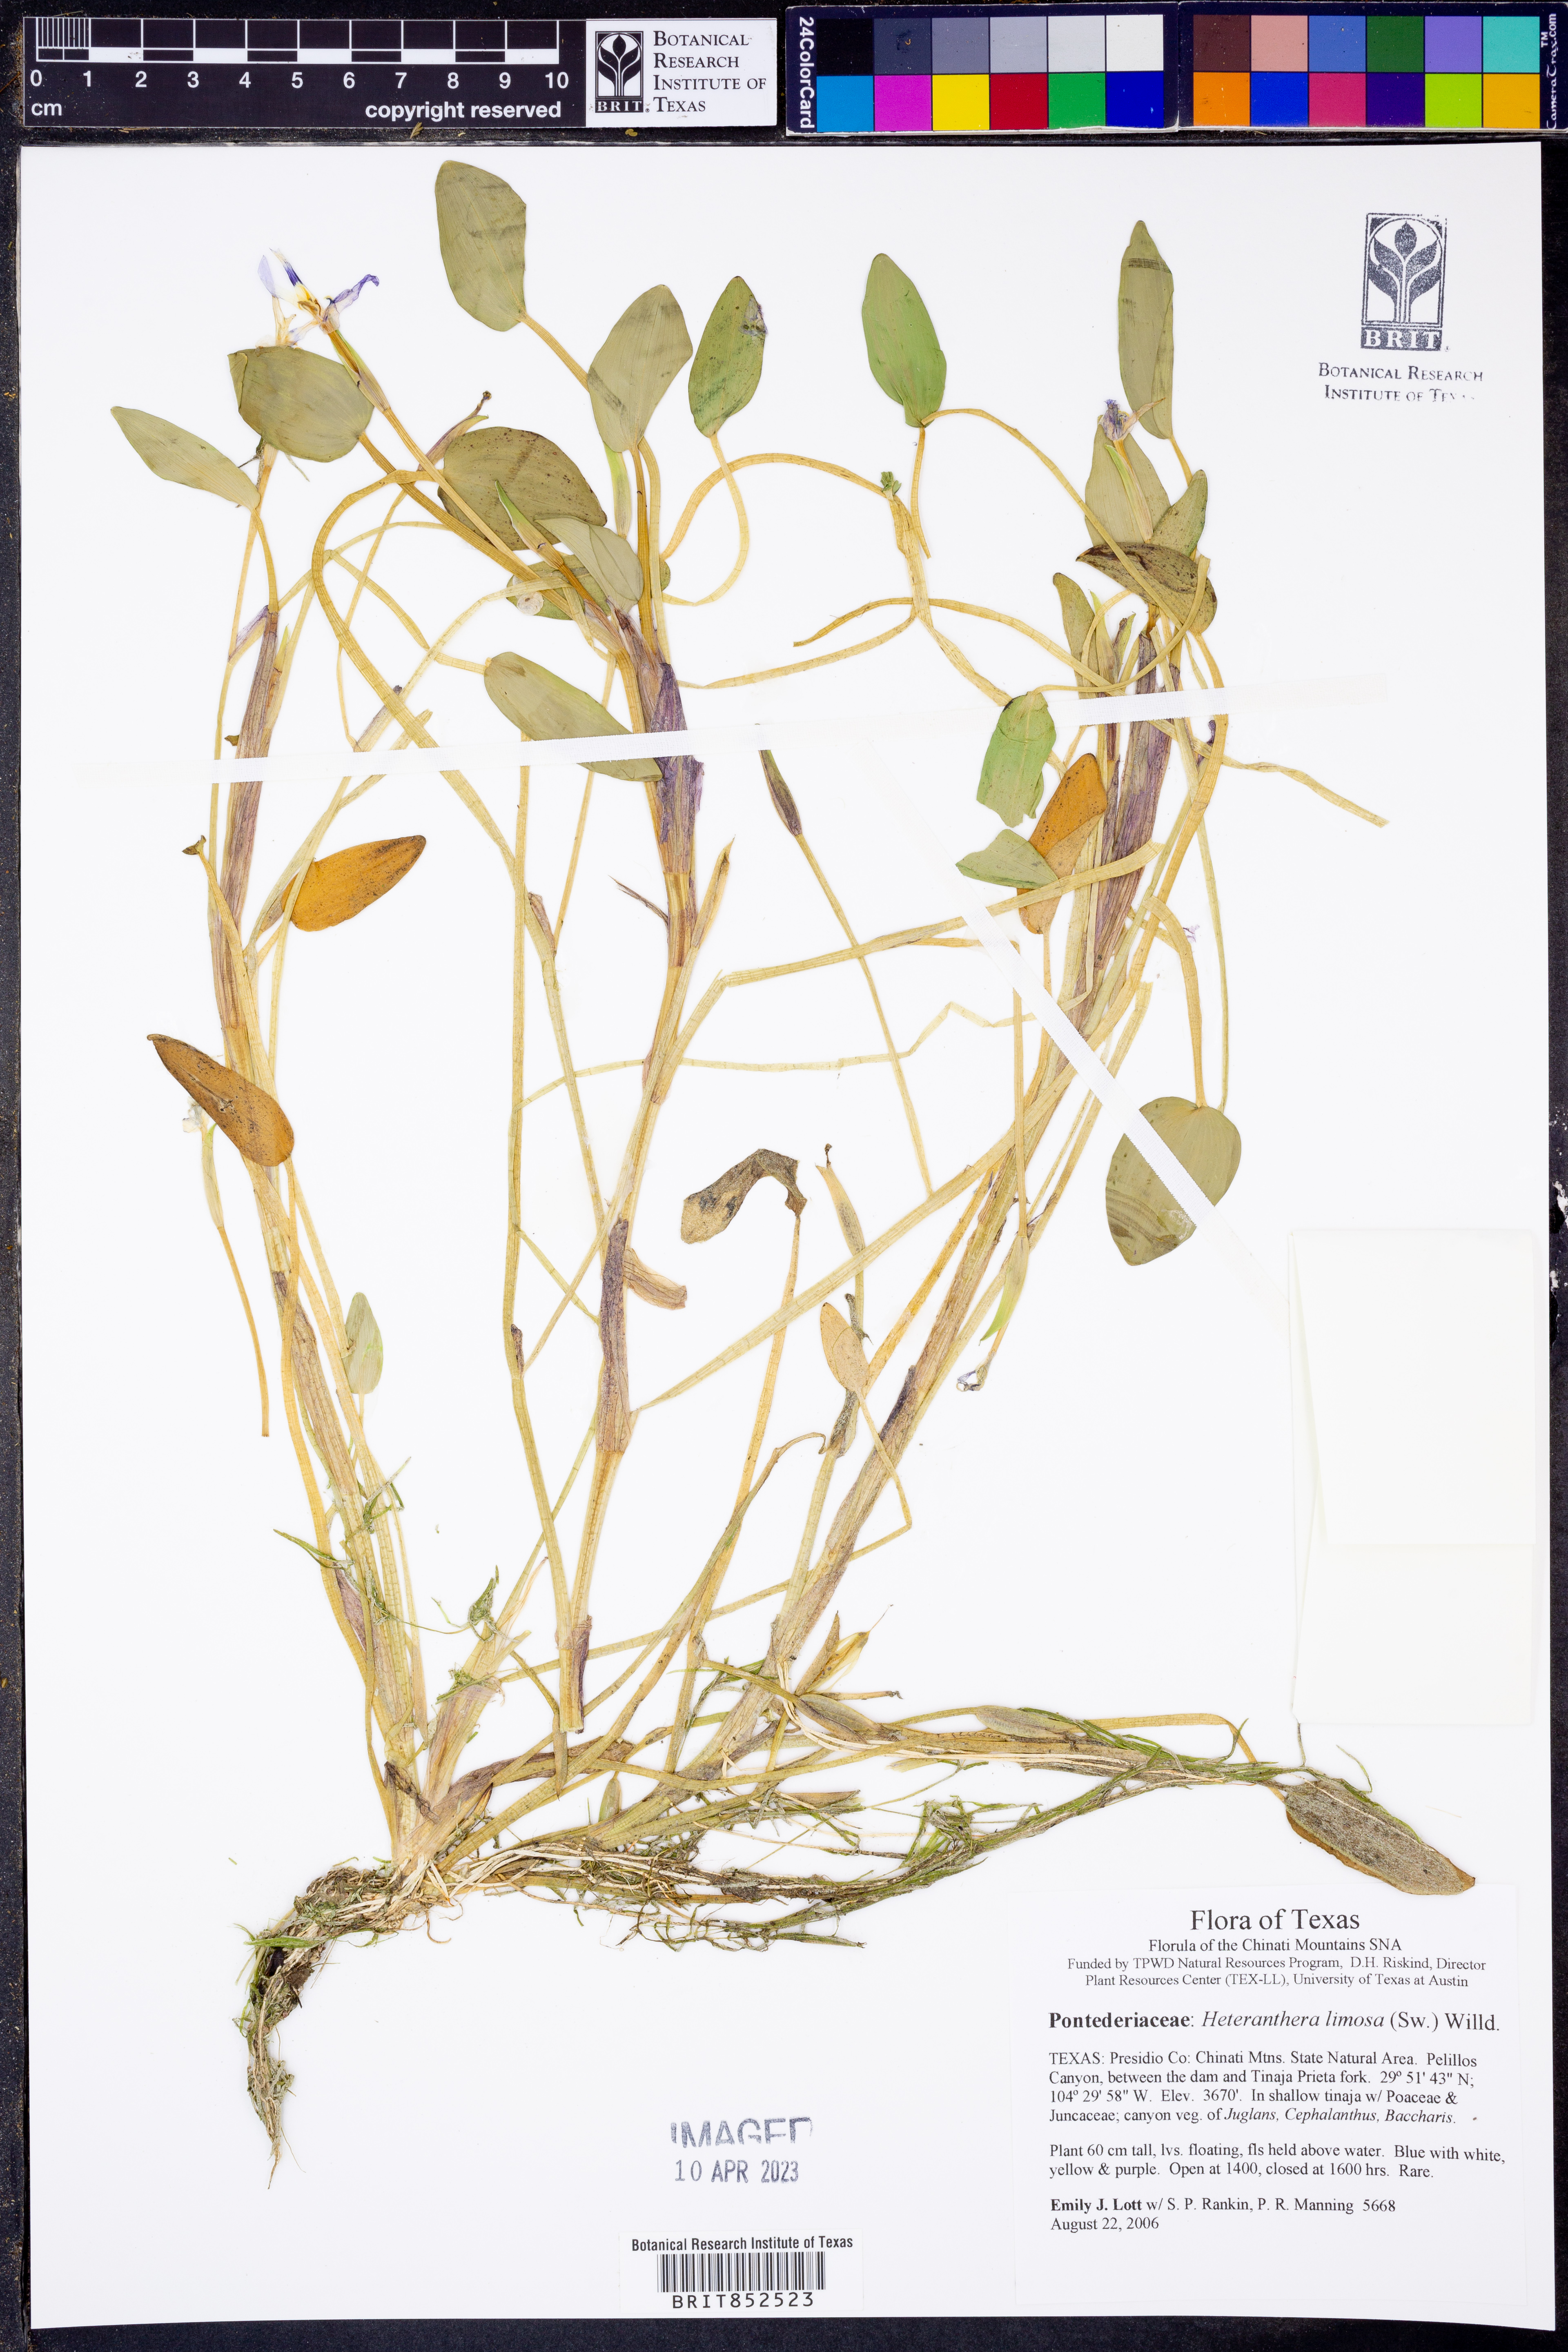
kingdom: Plantae
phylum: Tracheophyta
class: Liliopsida
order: Commelinales
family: Pontederiaceae
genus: Heteranthera
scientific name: Heteranthera limosa
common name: Blue mud-plantain
